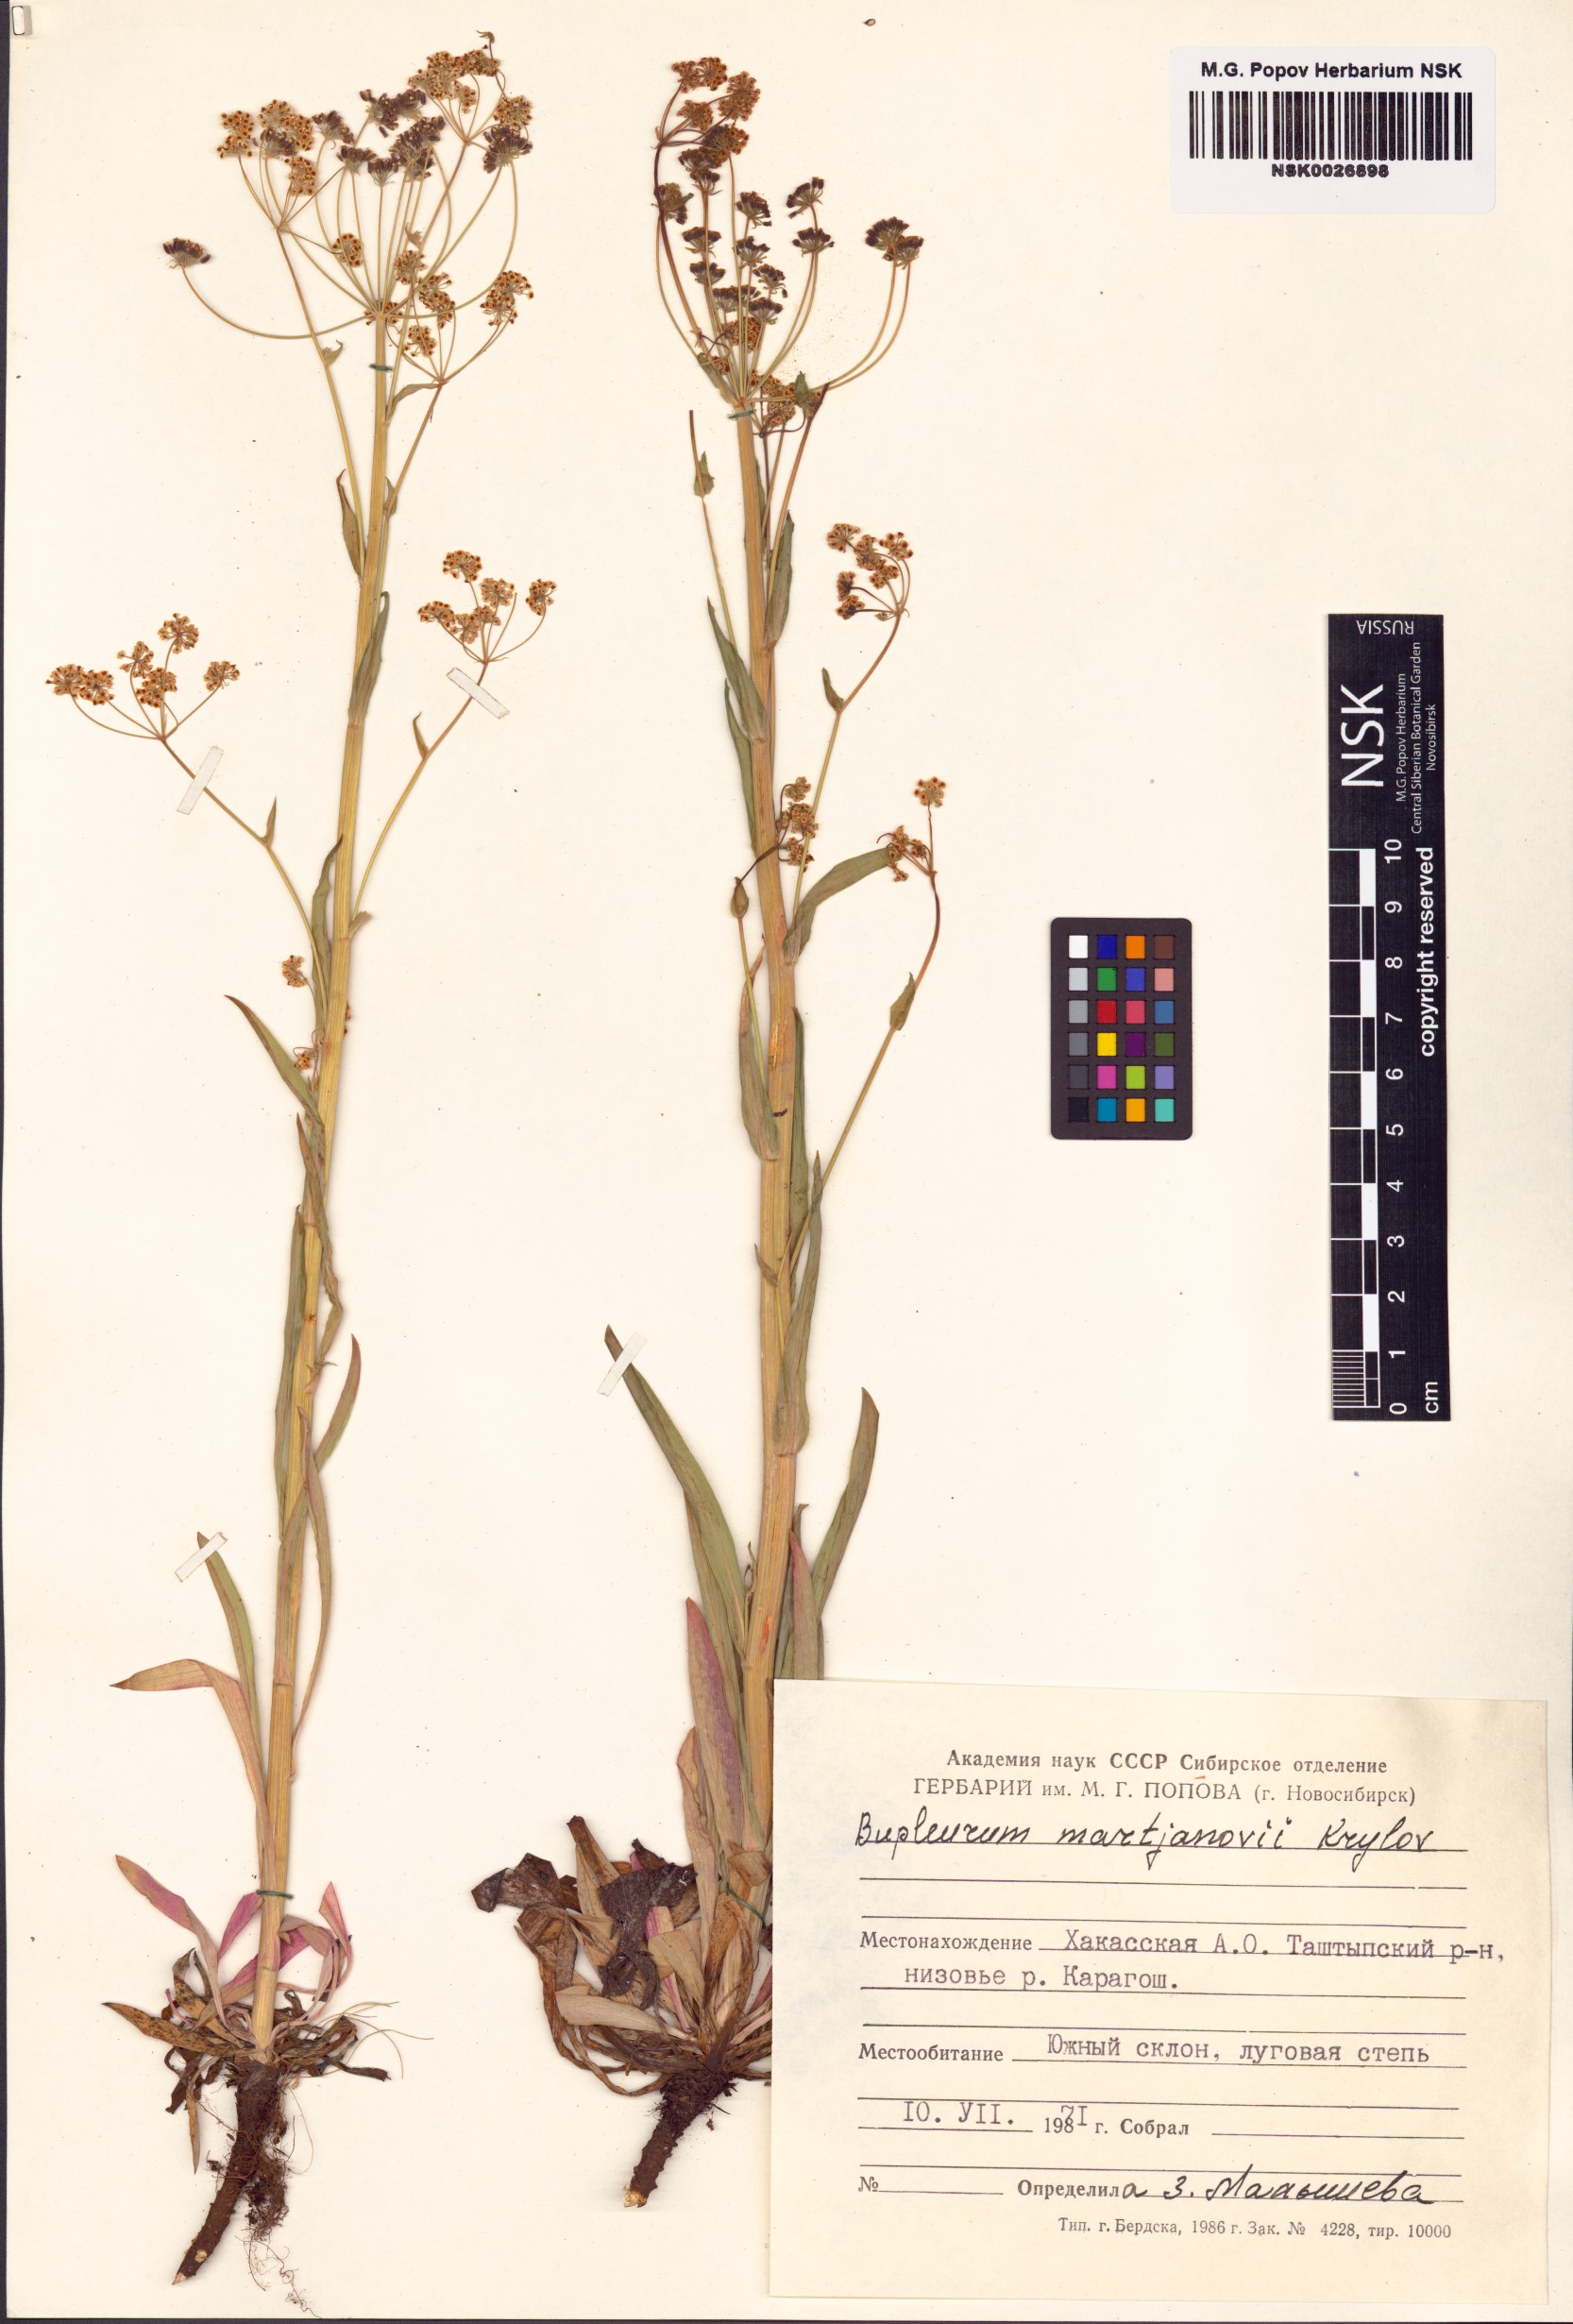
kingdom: Plantae
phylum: Tracheophyta
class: Magnoliopsida
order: Apiales
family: Apiaceae
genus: Bupleurum
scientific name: Bupleurum martjanovii
